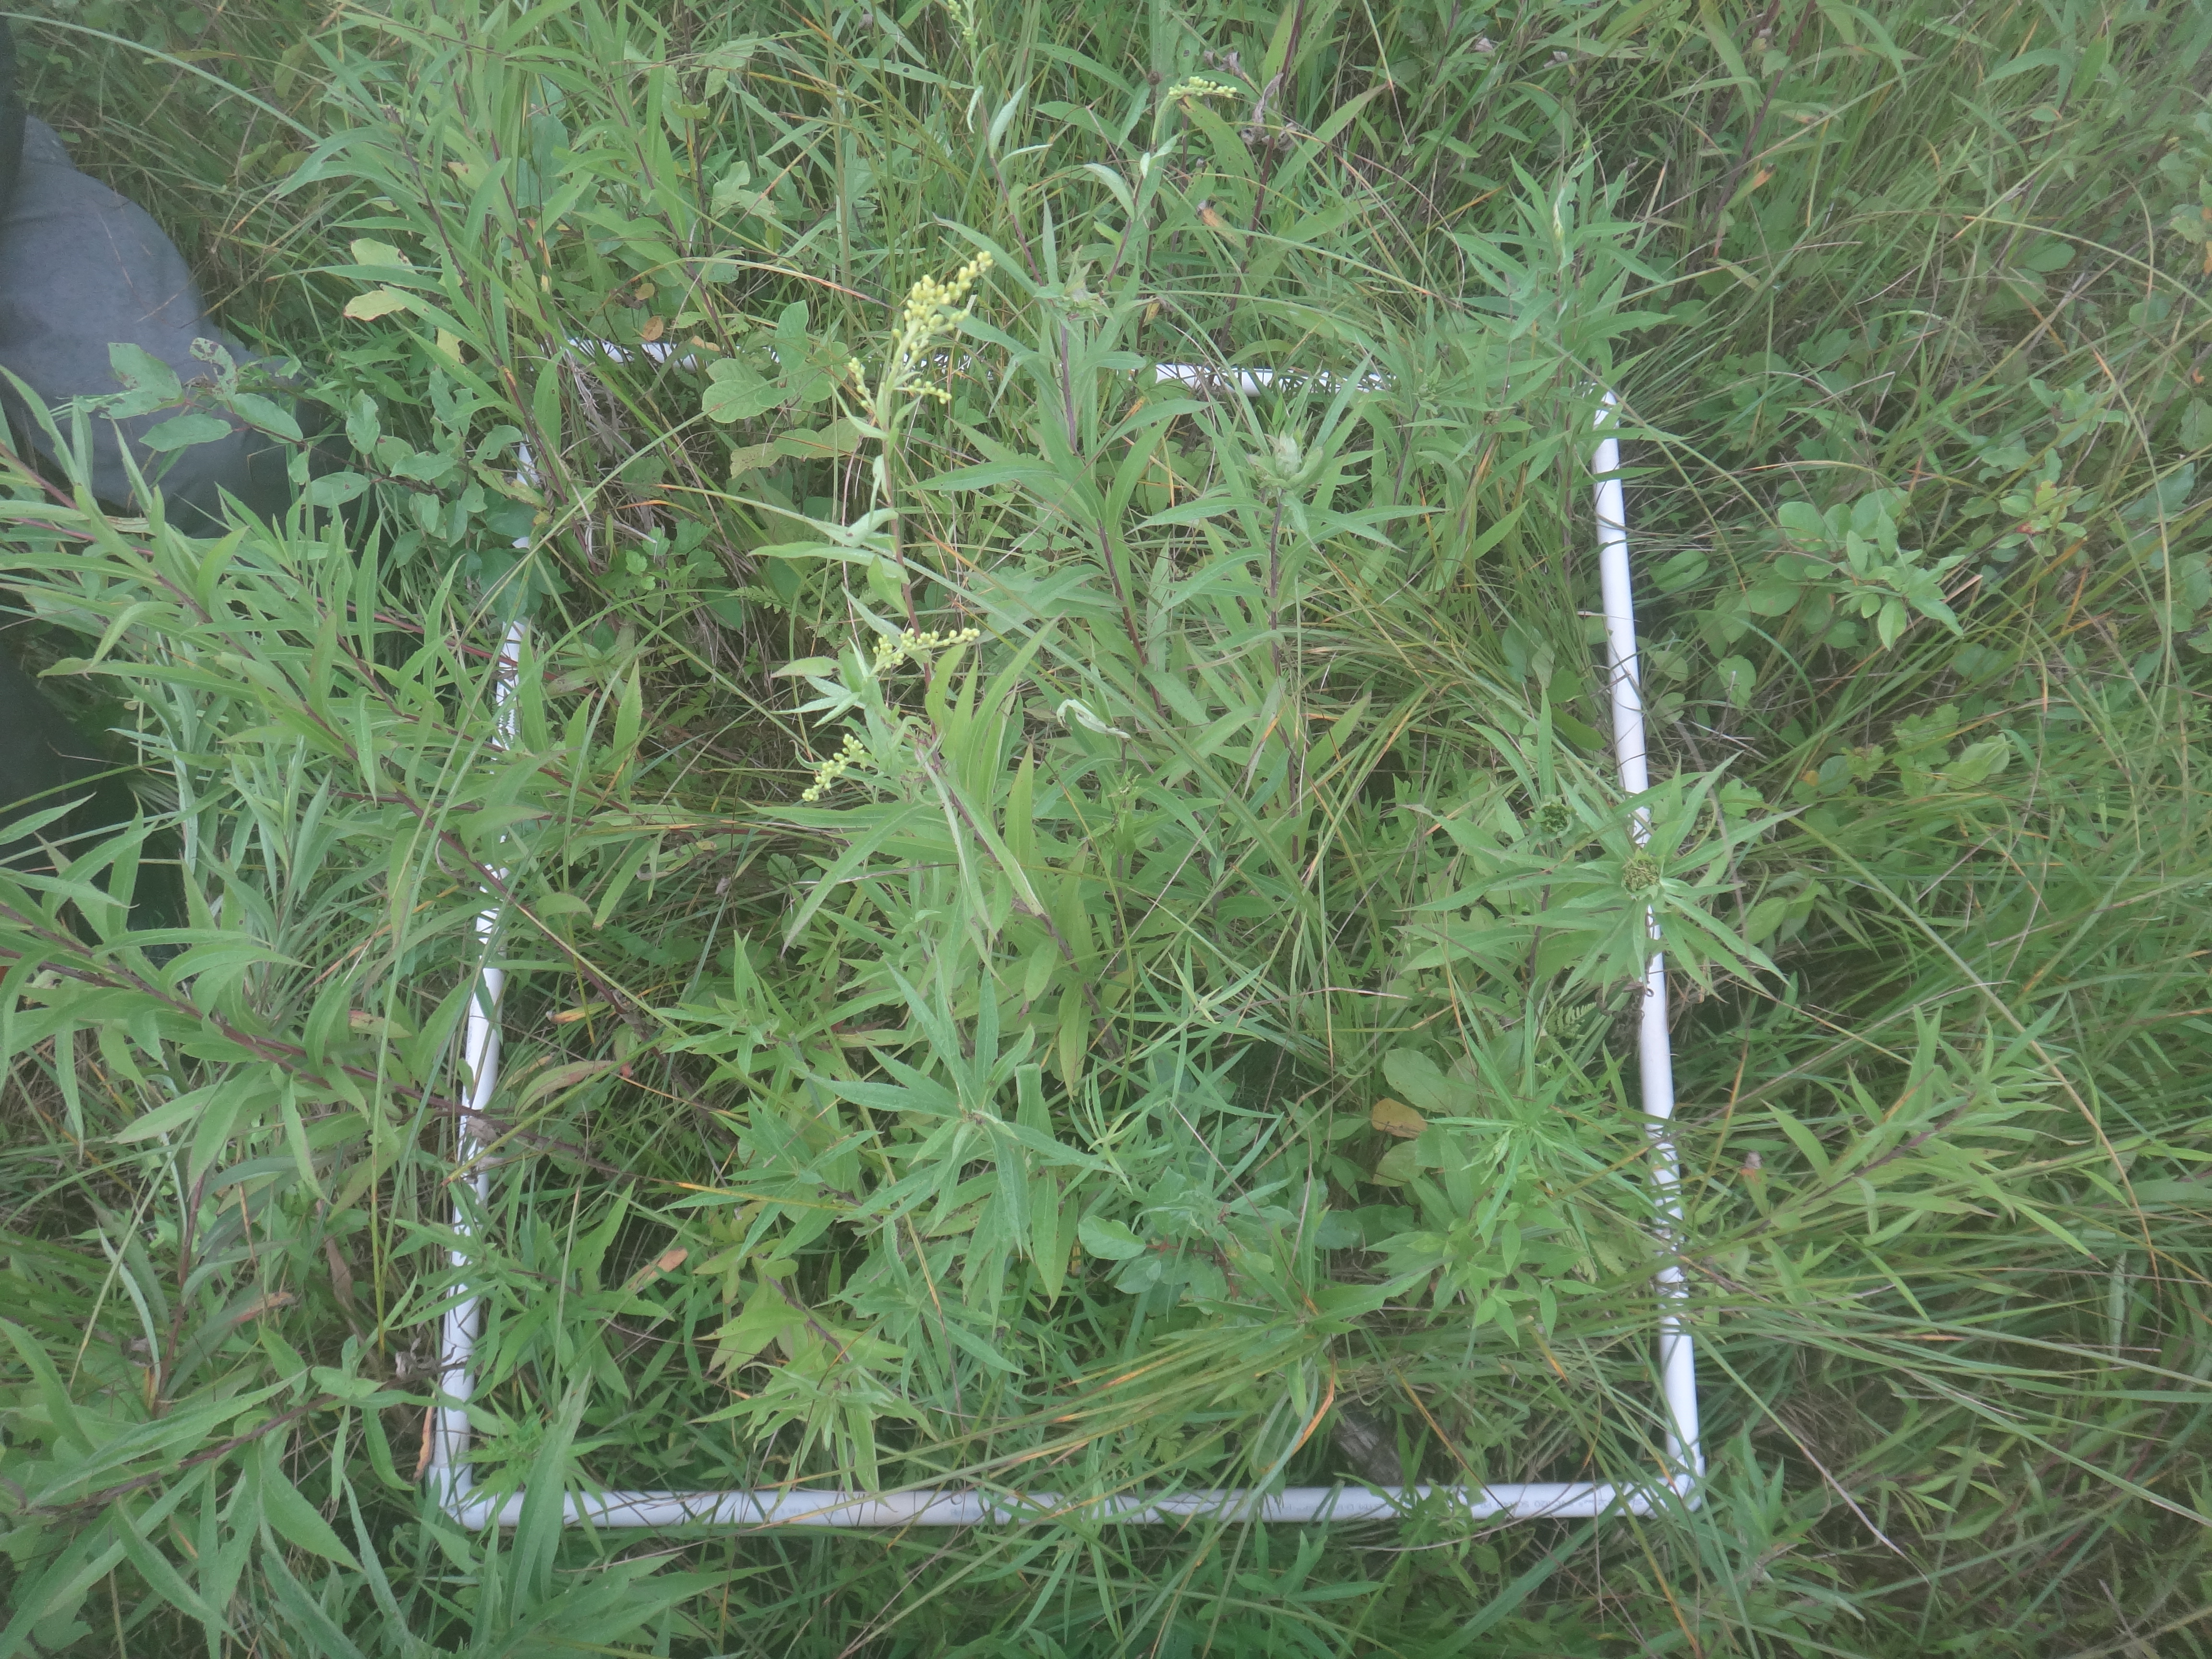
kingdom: Plantae
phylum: Tracheophyta
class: Magnoliopsida
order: Asterales
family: Asteraceae
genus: Symphyotrichum
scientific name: Symphyotrichum lanceolatum
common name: Panicled aster
